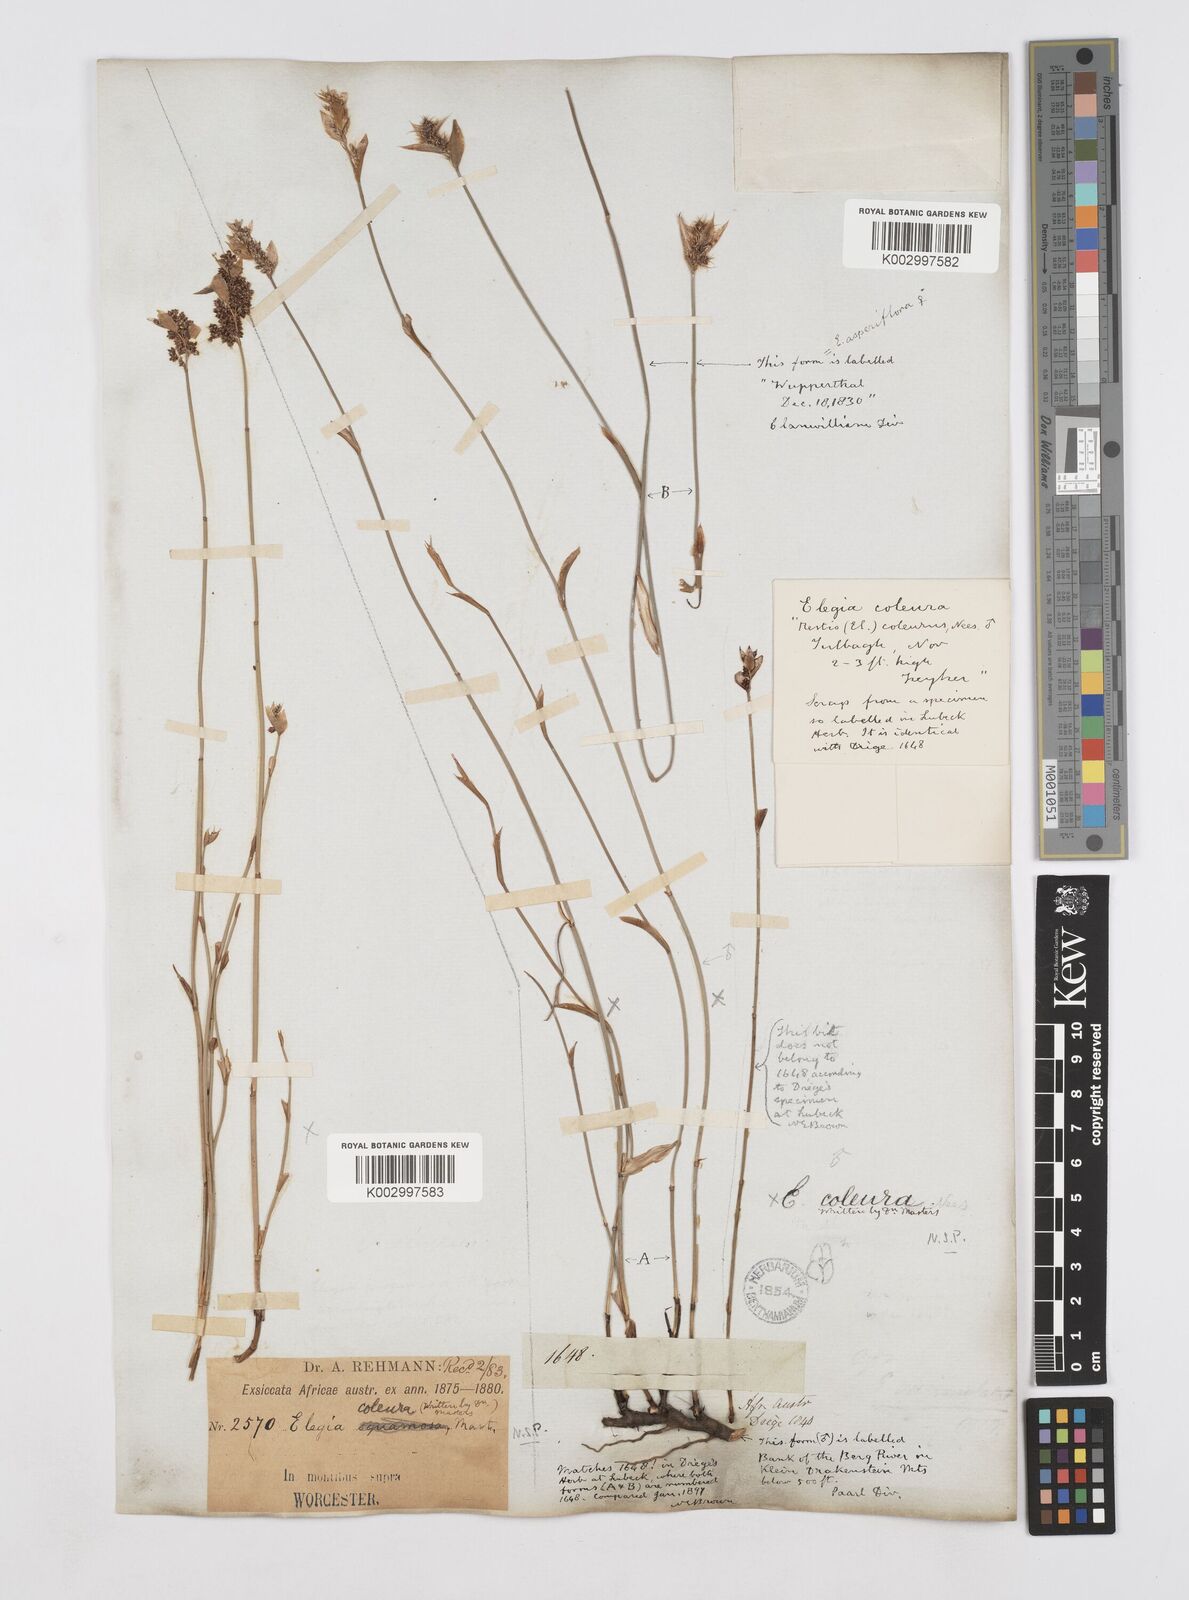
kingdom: Plantae
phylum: Tracheophyta
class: Liliopsida
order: Poales
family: Restionaceae
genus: Elegia
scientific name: Elegia coleura
